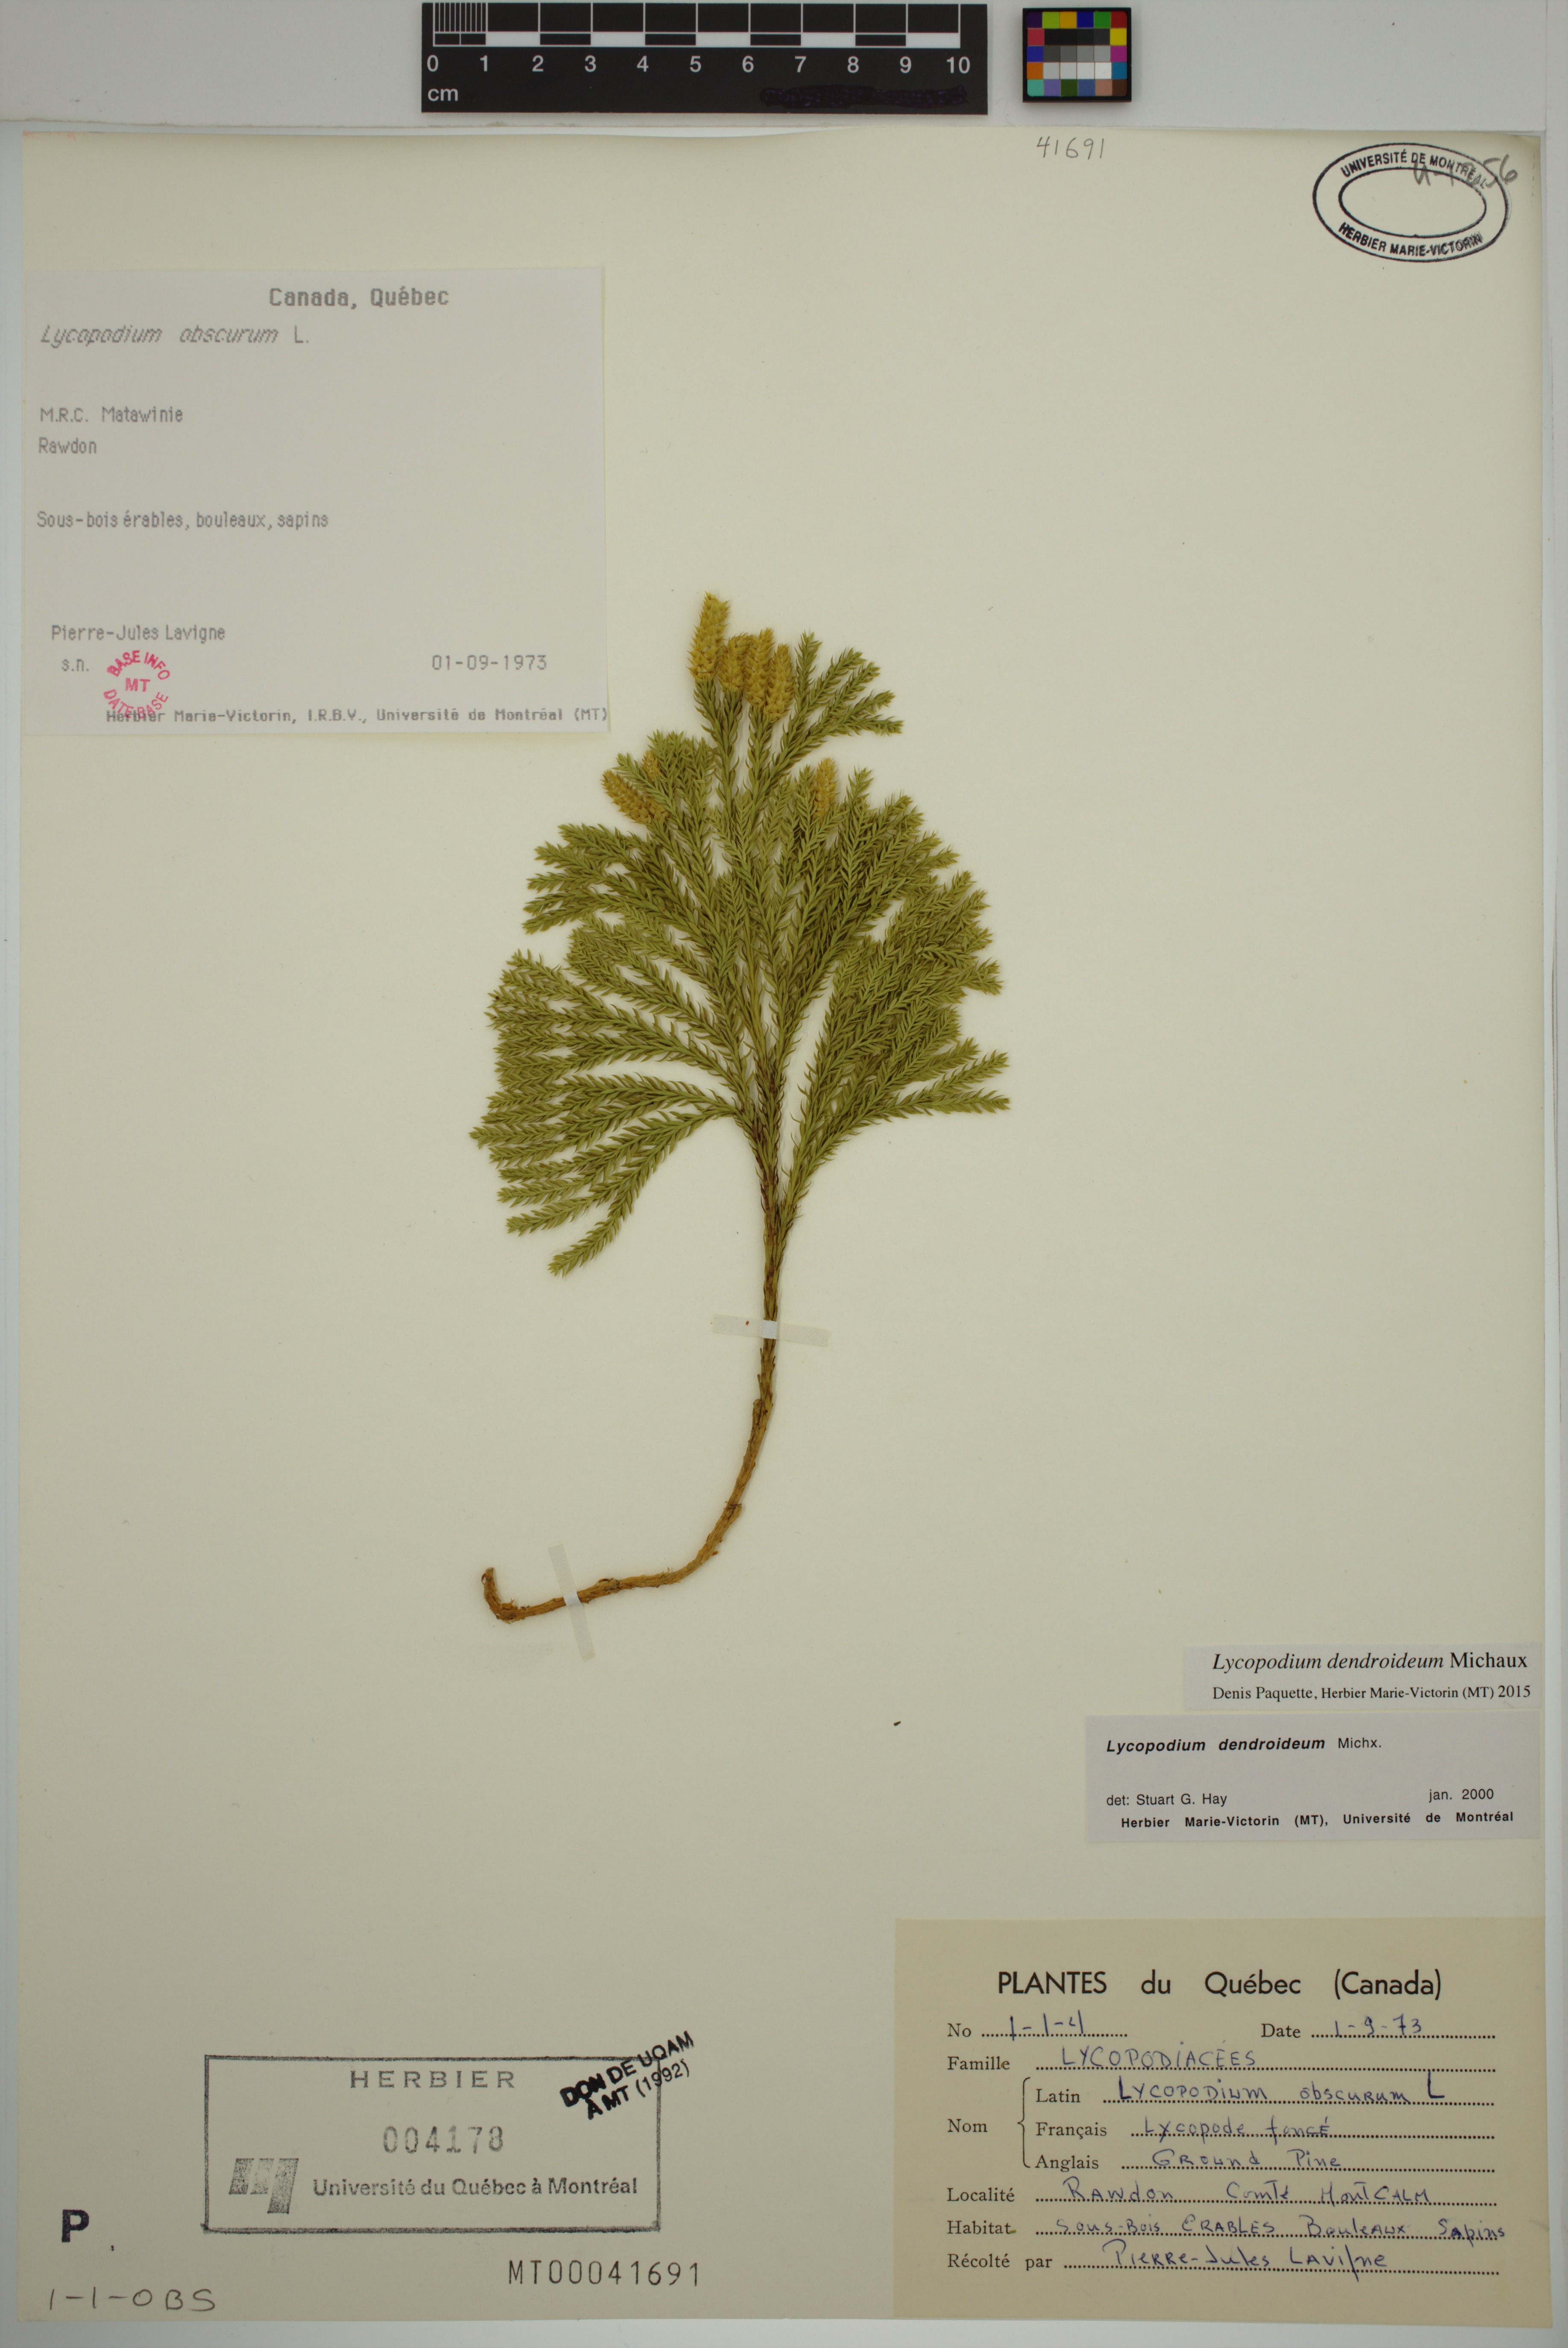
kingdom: Plantae
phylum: Tracheophyta
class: Lycopodiopsida
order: Lycopodiales
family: Lycopodiaceae
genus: Dendrolycopodium
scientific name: Dendrolycopodium dendroideum
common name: Northern tree-clubmoss
